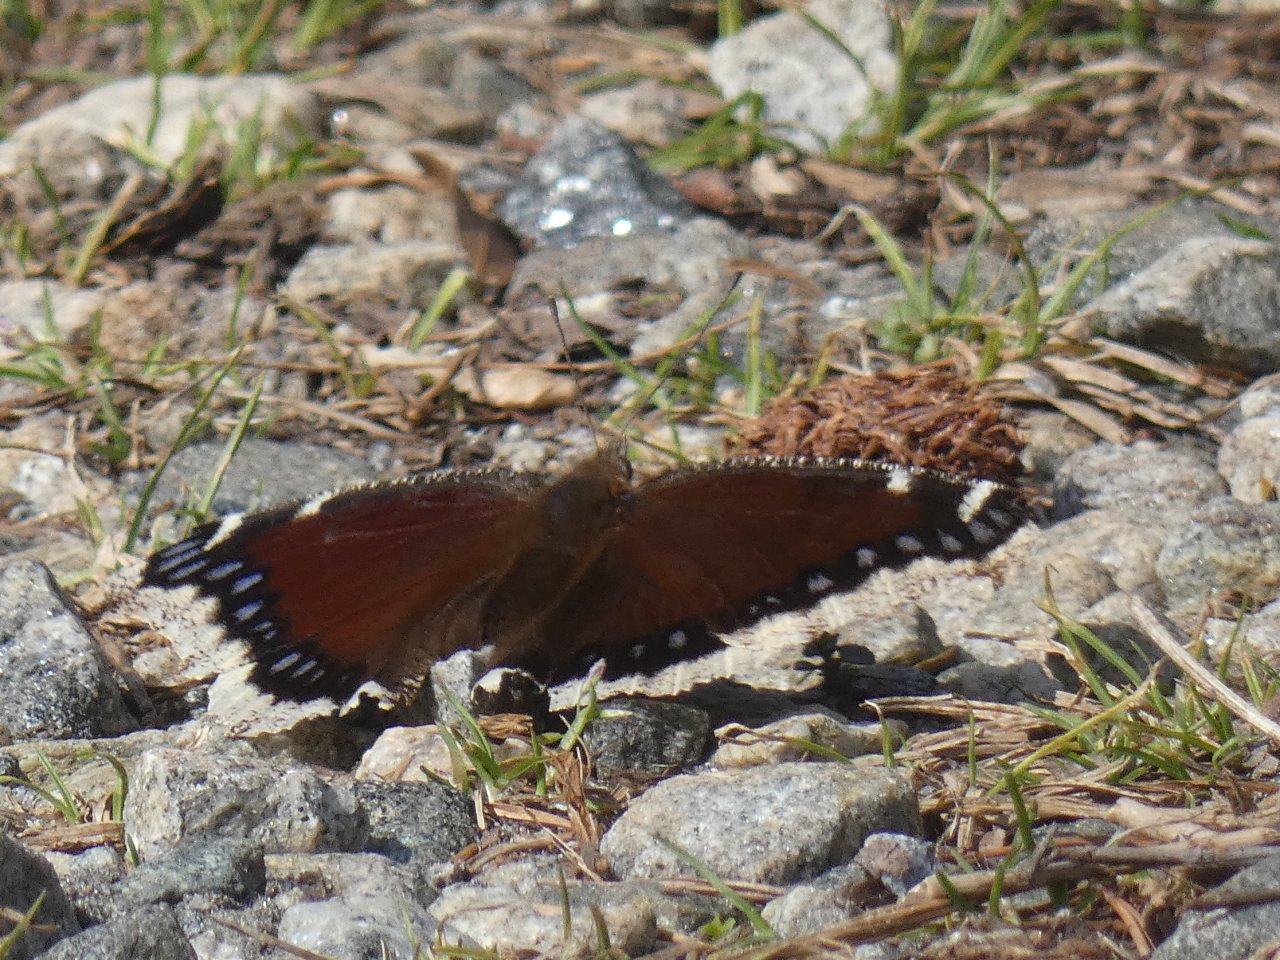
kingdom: Animalia
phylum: Arthropoda
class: Insecta
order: Lepidoptera
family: Nymphalidae
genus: Nymphalis
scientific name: Nymphalis antiopa
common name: Mourning Cloak
